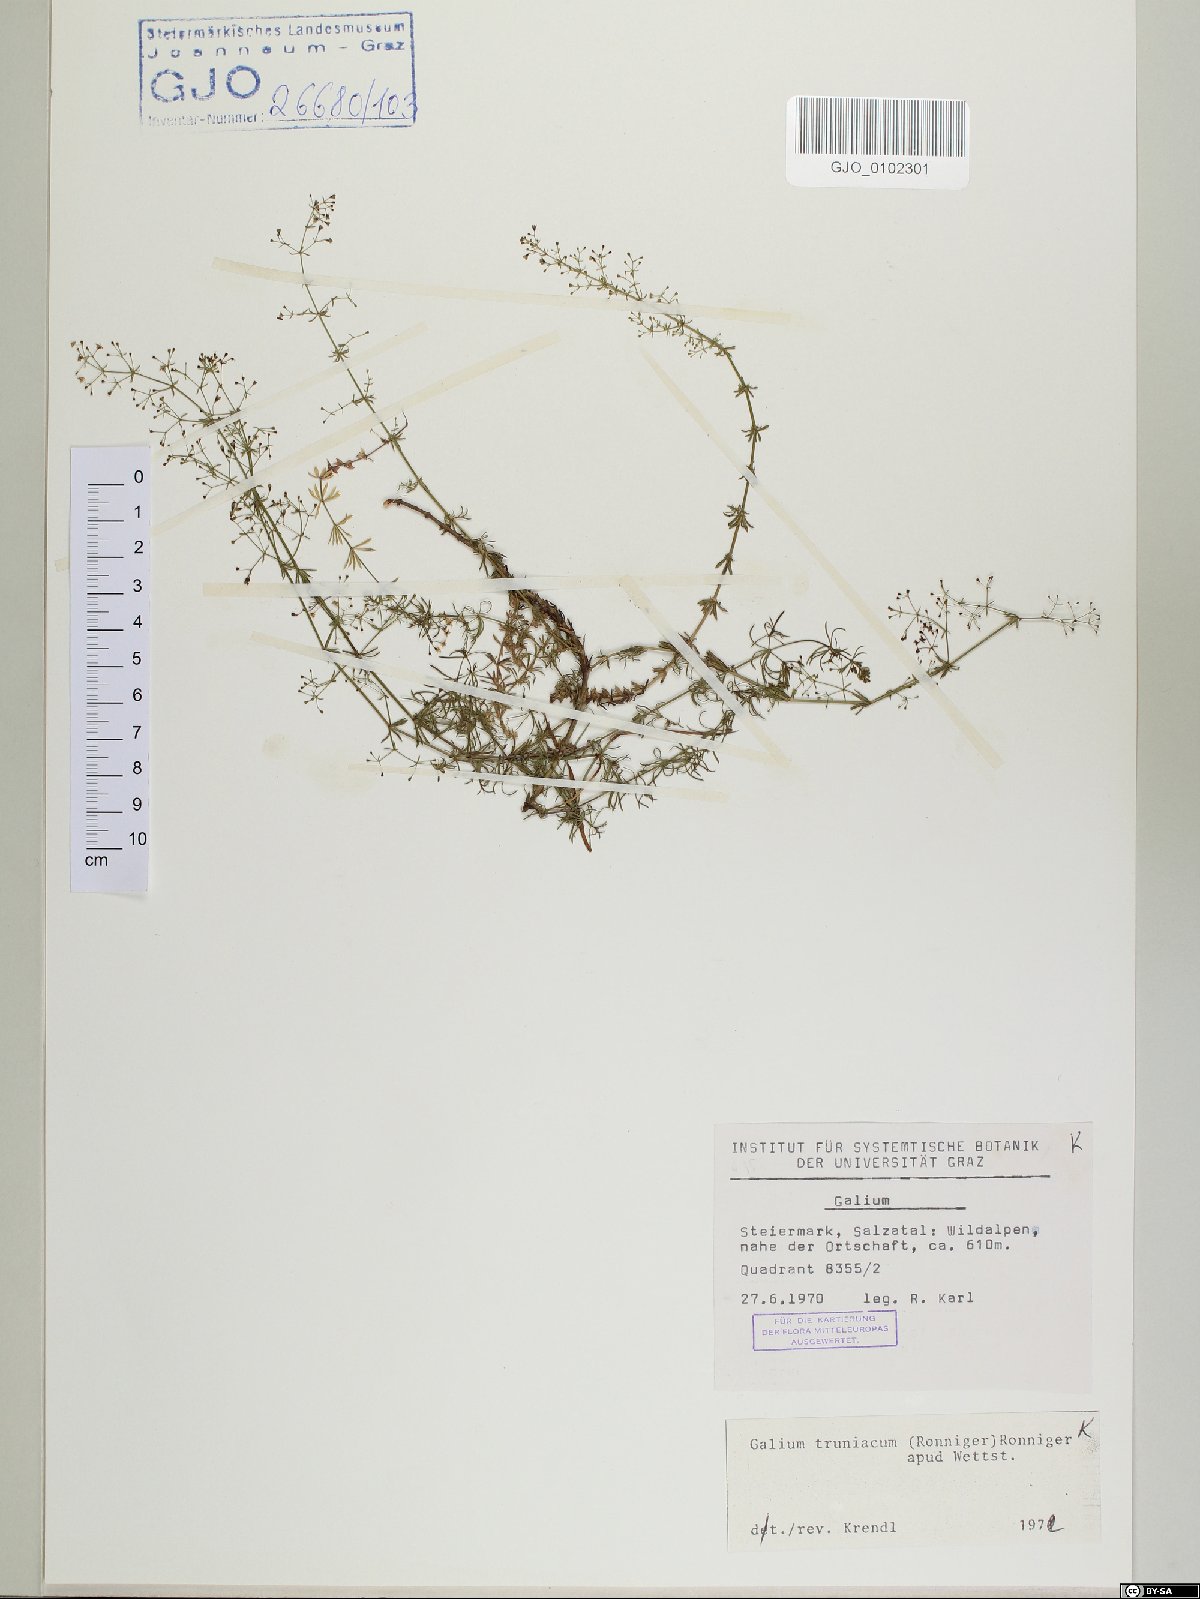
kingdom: Plantae
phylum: Tracheophyta
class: Magnoliopsida
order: Gentianales
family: Rubiaceae
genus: Galium
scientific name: Galium truniacum
